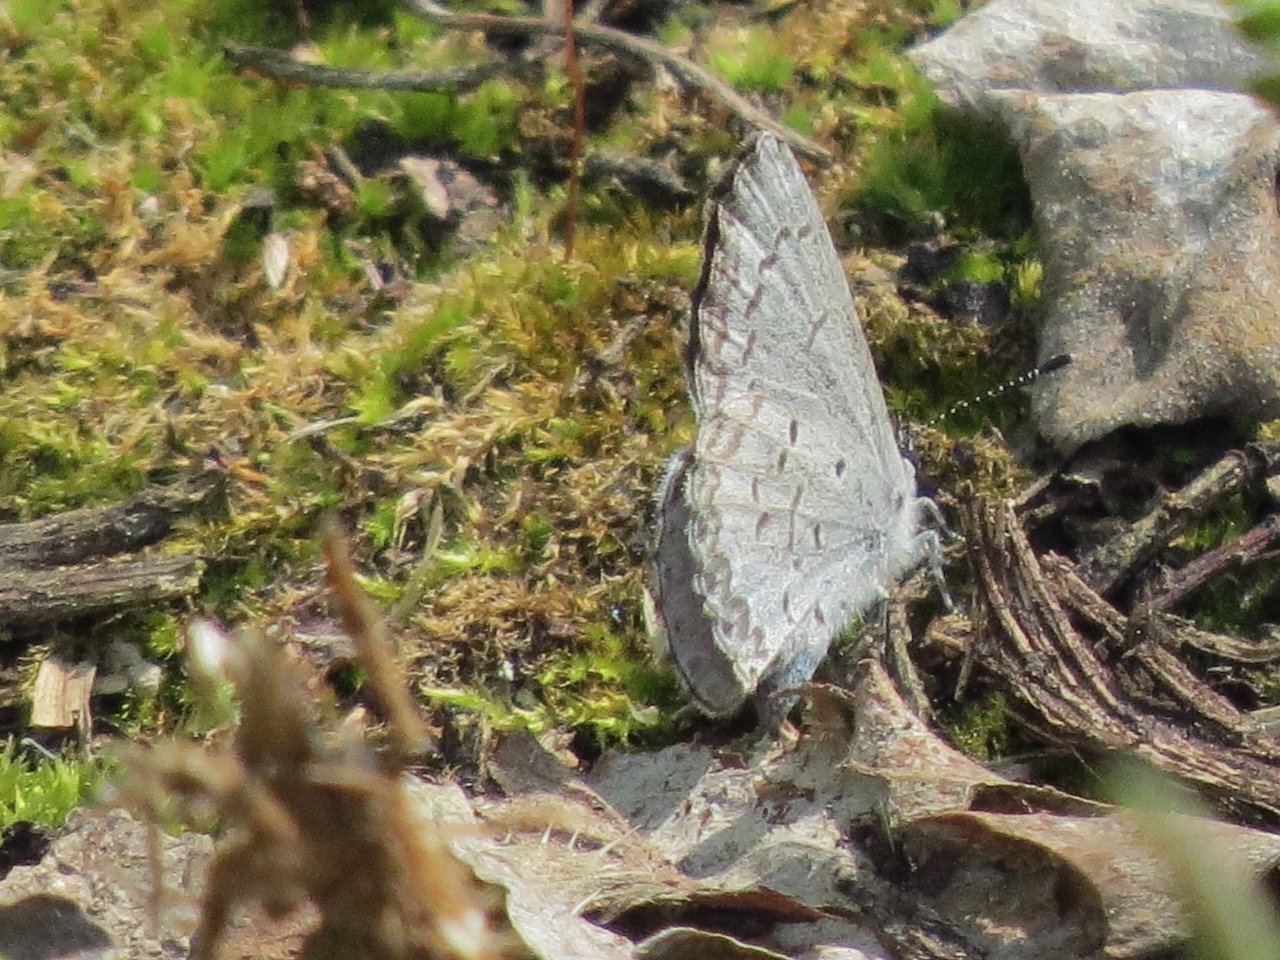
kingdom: Animalia
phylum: Arthropoda
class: Insecta
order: Lepidoptera
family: Lycaenidae
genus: Celastrina
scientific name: Celastrina lucia
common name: Northern Spring Azure
